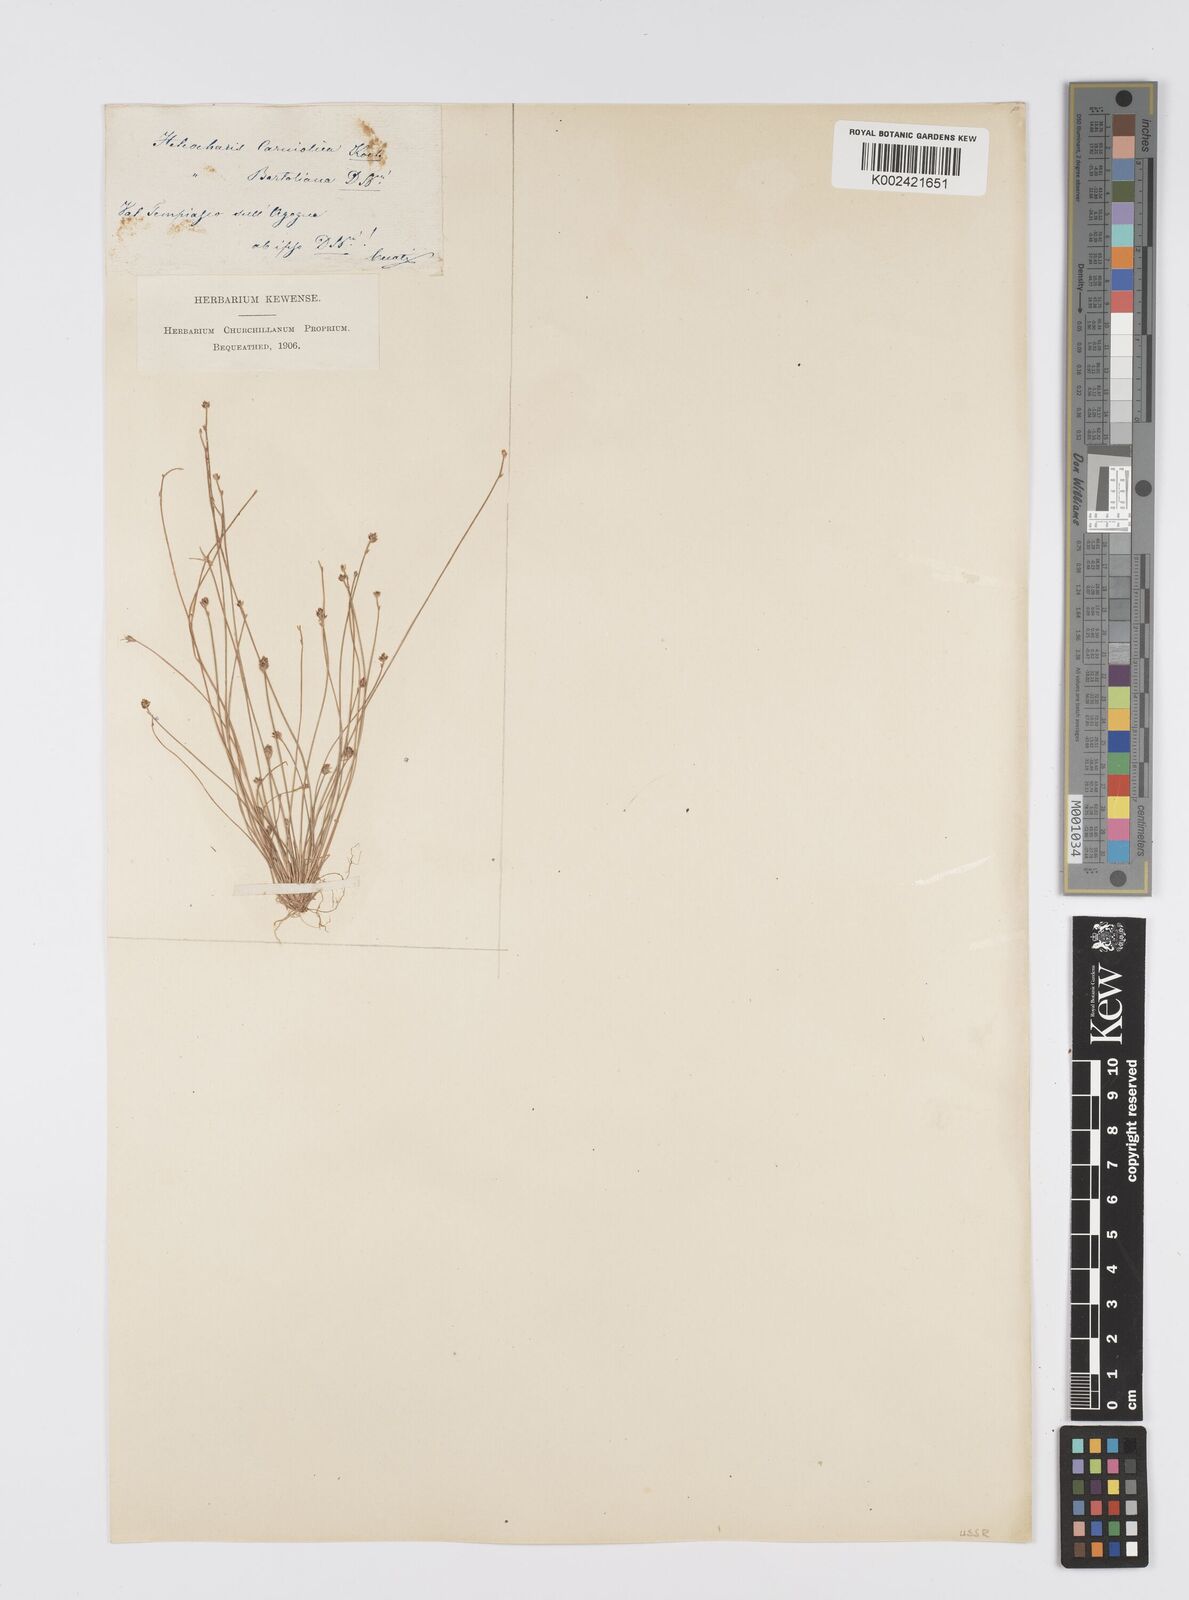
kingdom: Plantae
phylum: Tracheophyta
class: Liliopsida
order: Poales
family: Cyperaceae
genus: Eleocharis
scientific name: Eleocharis carniolica
